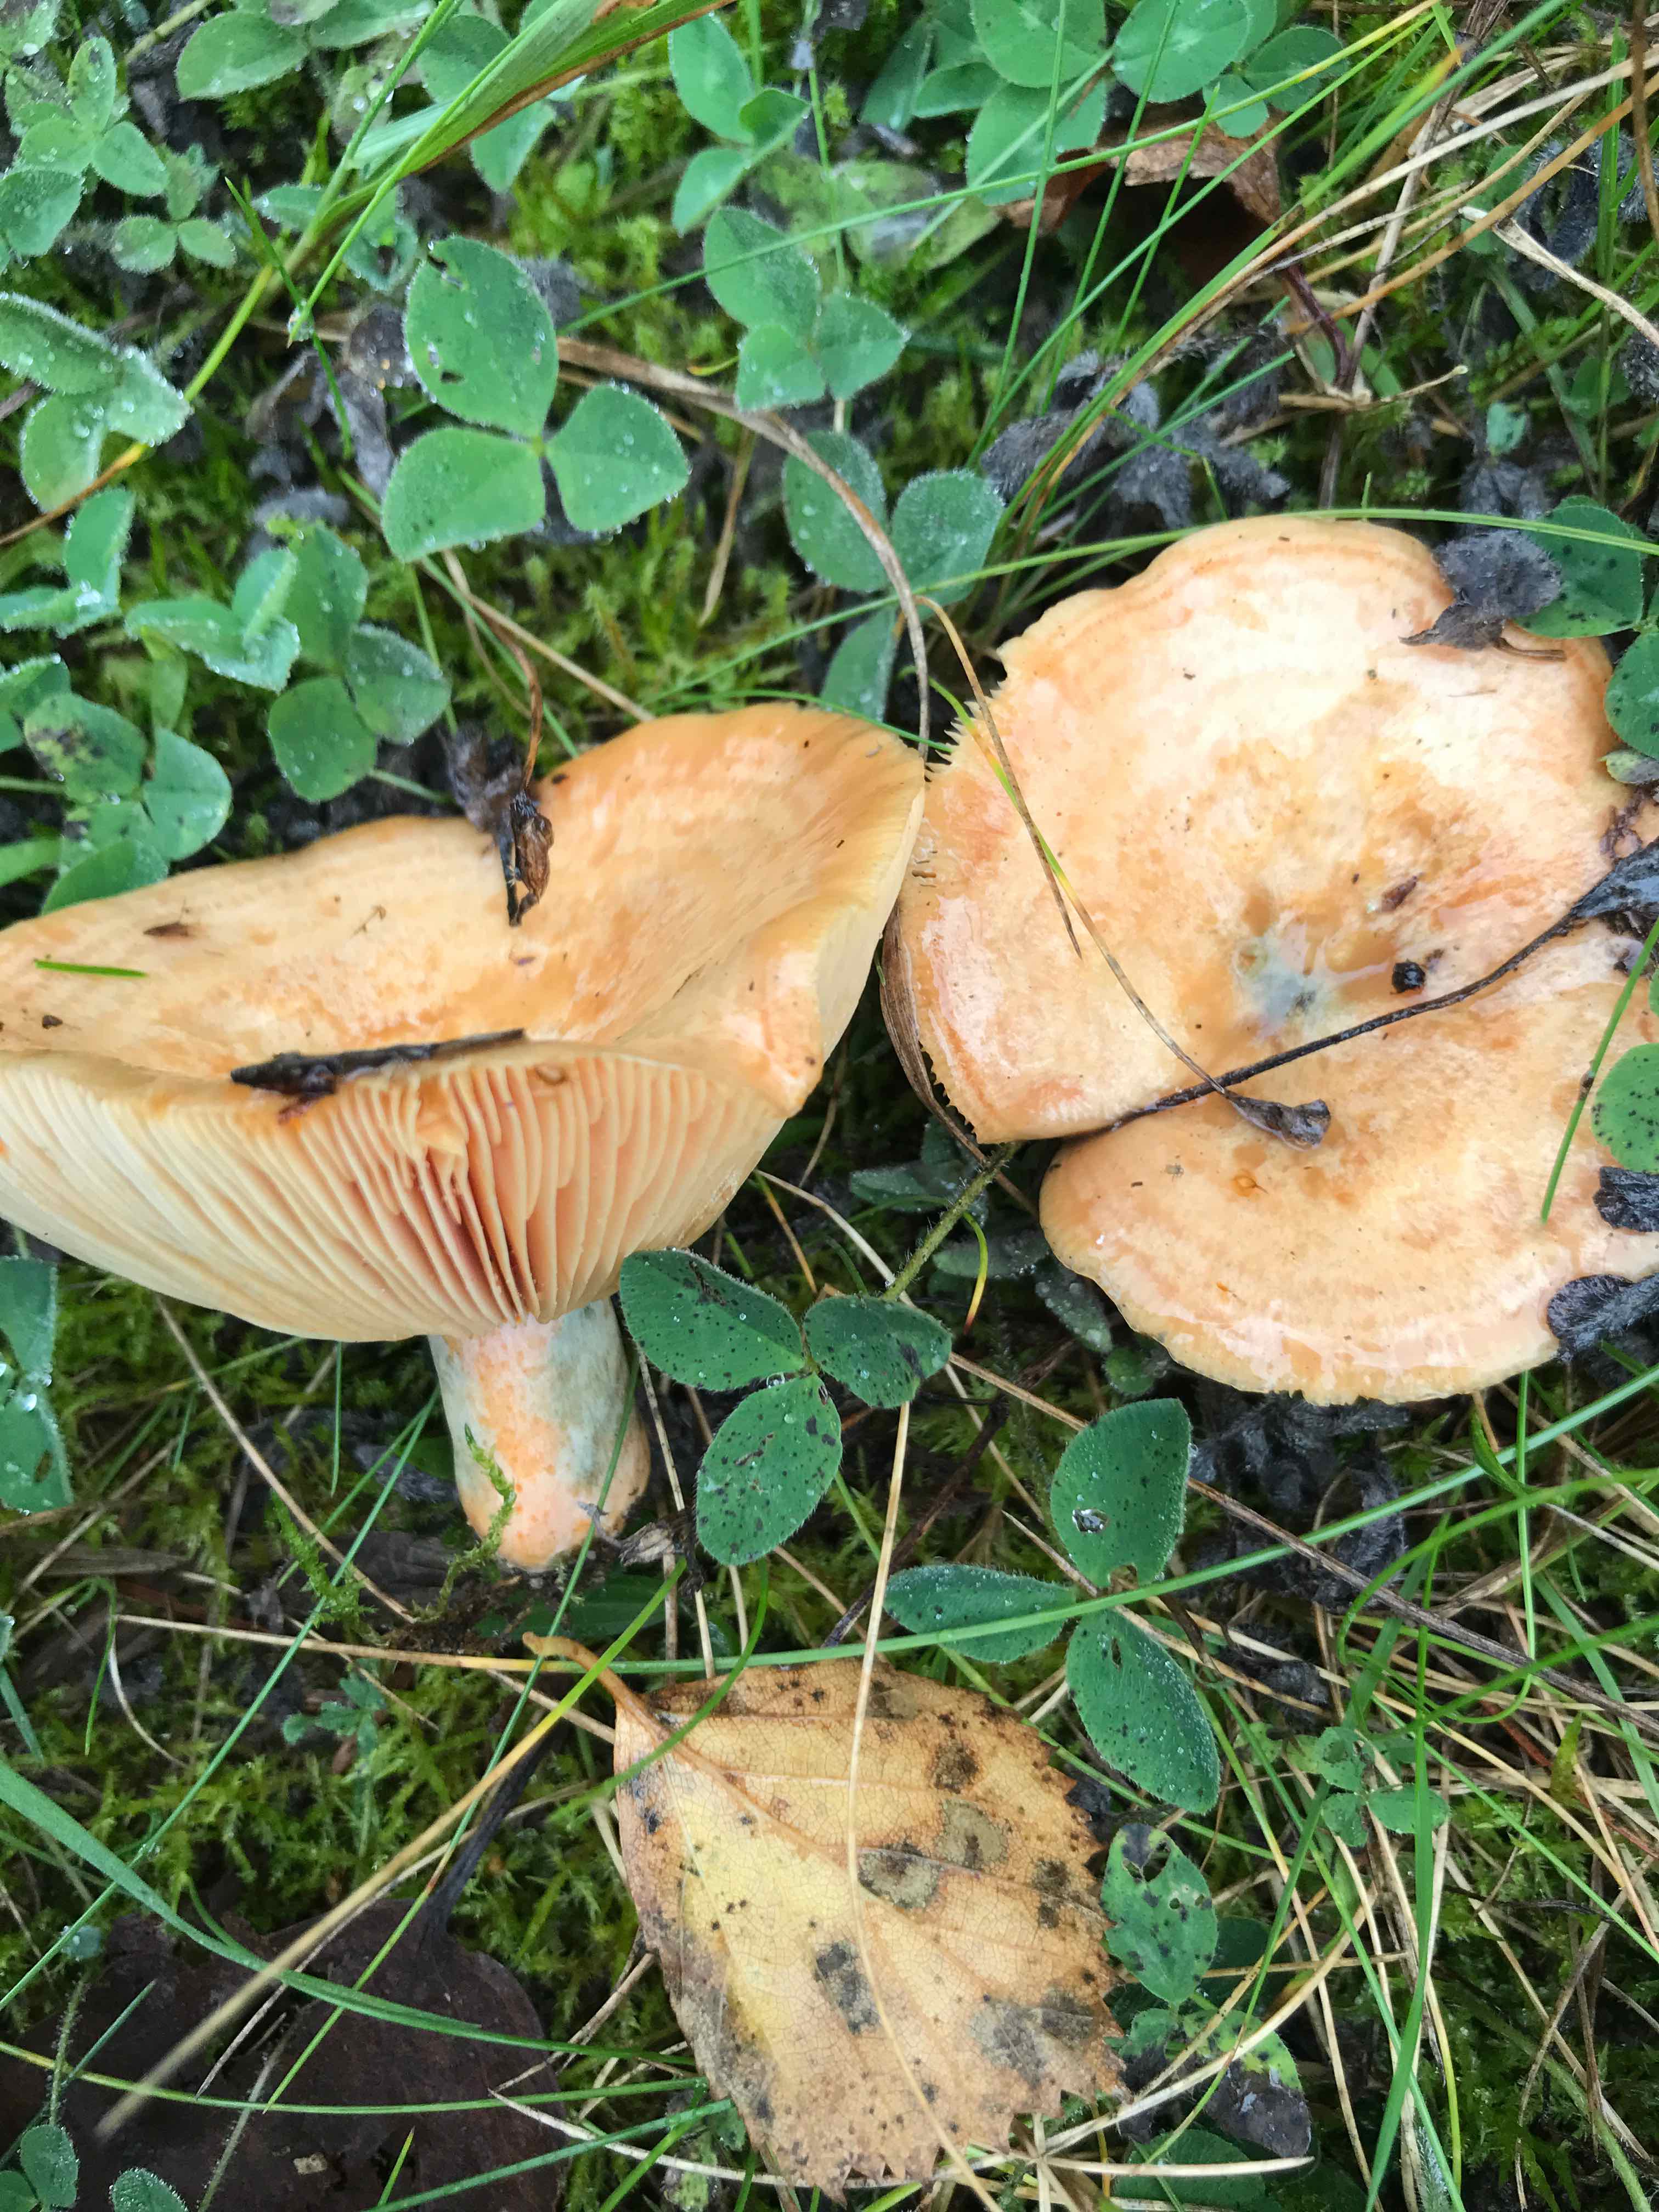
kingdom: Fungi
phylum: Basidiomycota
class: Agaricomycetes
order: Russulales
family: Russulaceae
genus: Lactarius
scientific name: Lactarius deliciosus
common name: velsmagende mælkehat
